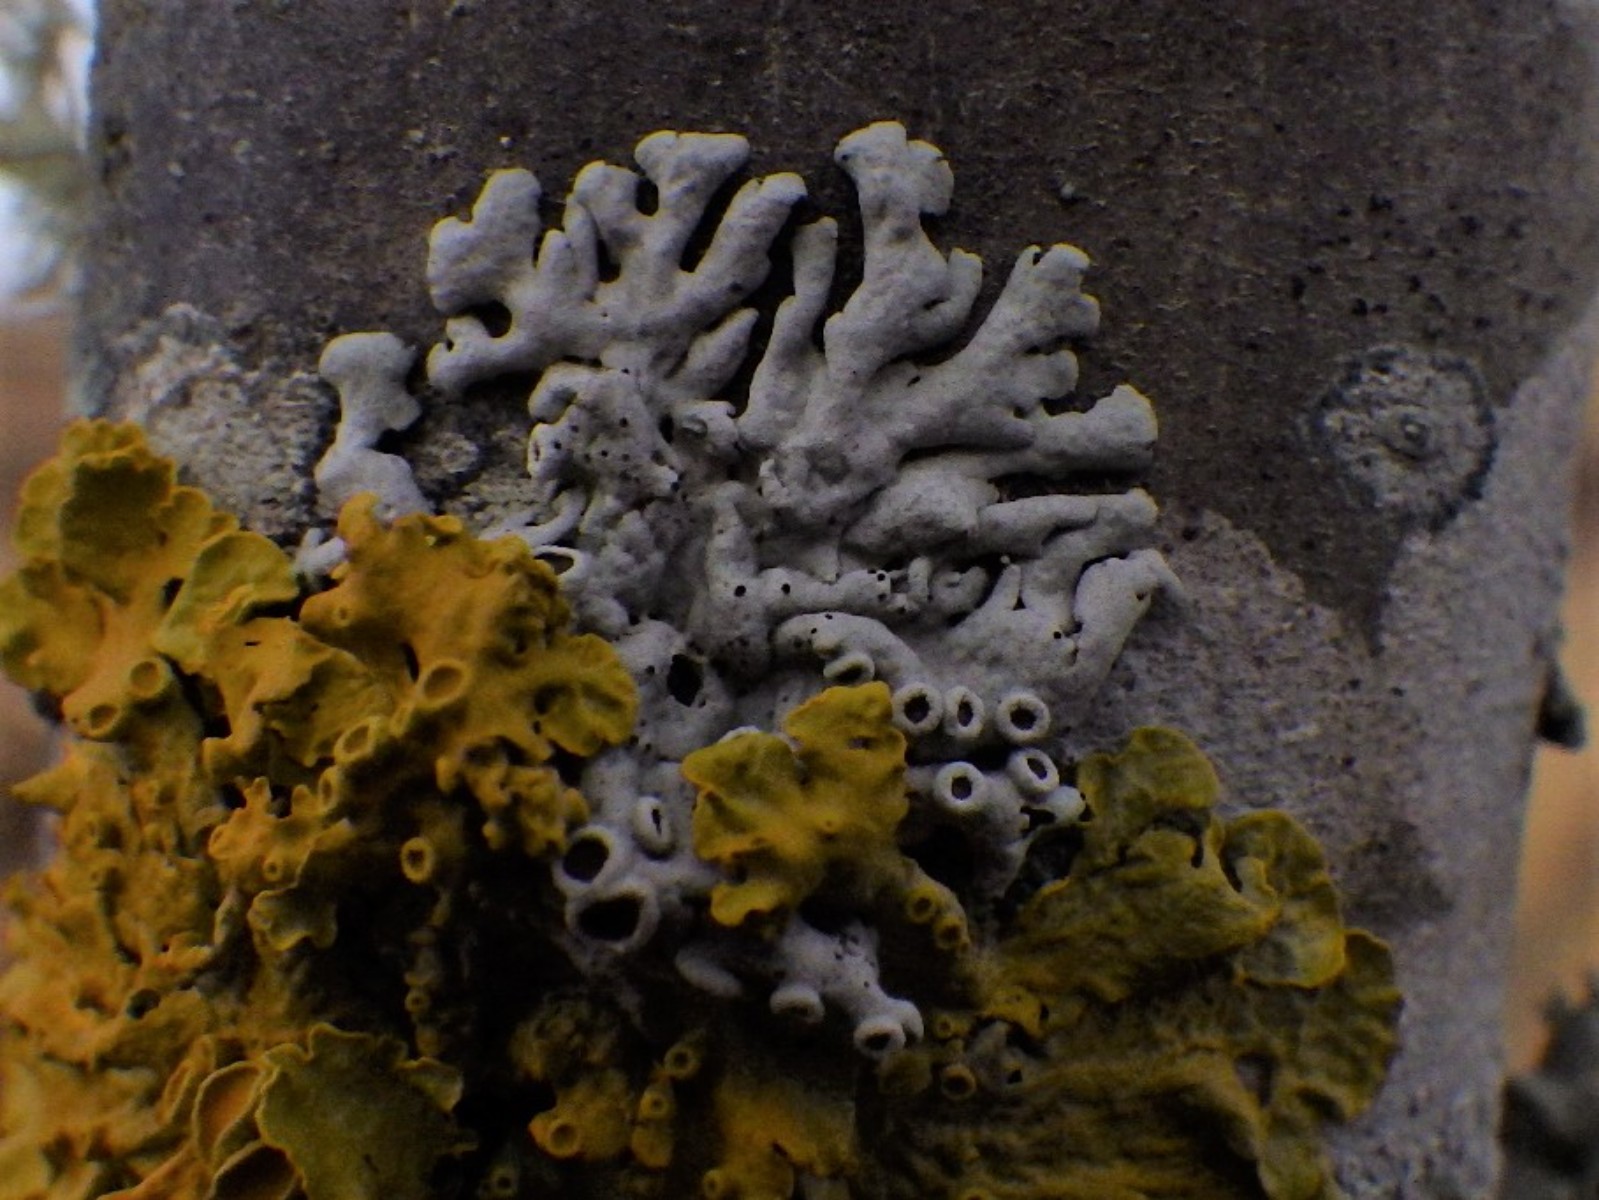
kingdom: Fungi
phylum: Ascomycota
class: Lecanoromycetes
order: Caliciales
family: Physciaceae
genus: Physcia
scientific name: Physcia aipolia
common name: hvidprikket rosetlav
